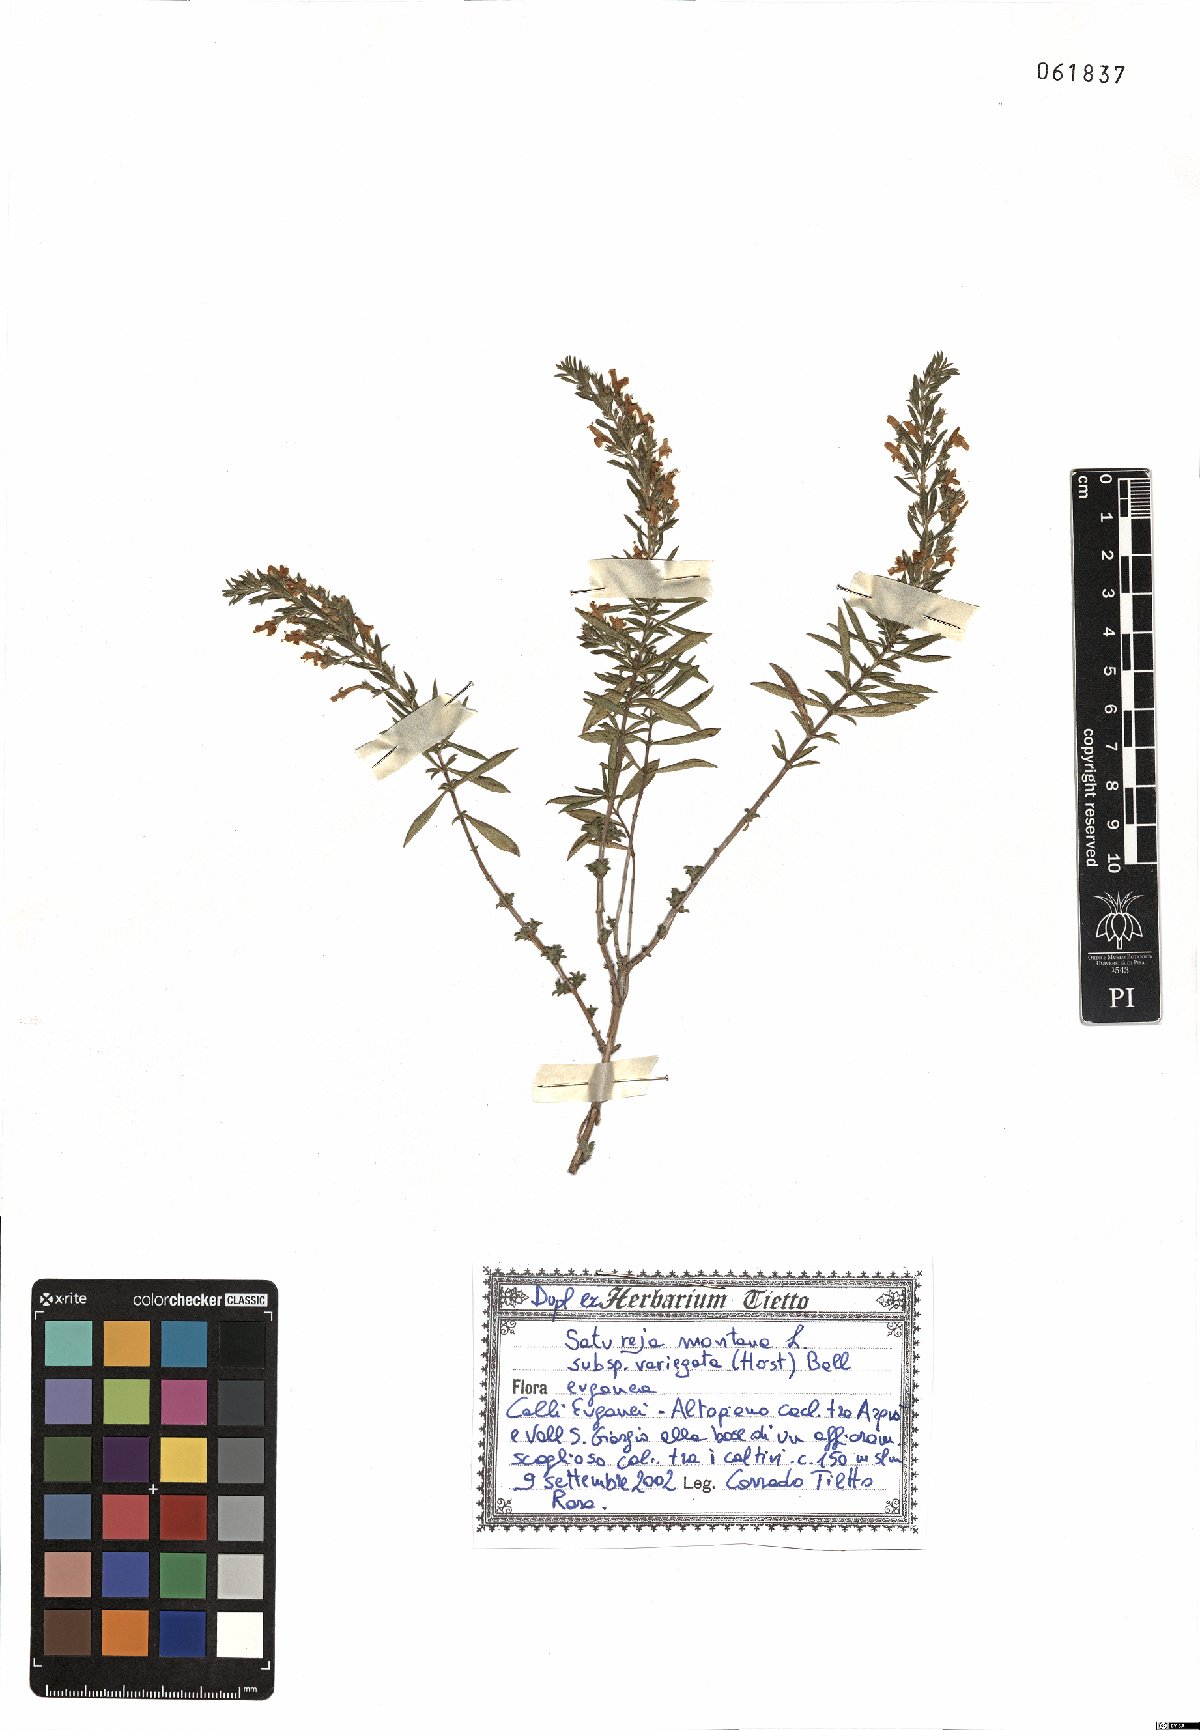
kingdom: Plantae
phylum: Tracheophyta
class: Magnoliopsida
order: Lamiales
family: Lamiaceae
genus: Satureja
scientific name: Satureja montana
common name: Winter savory
